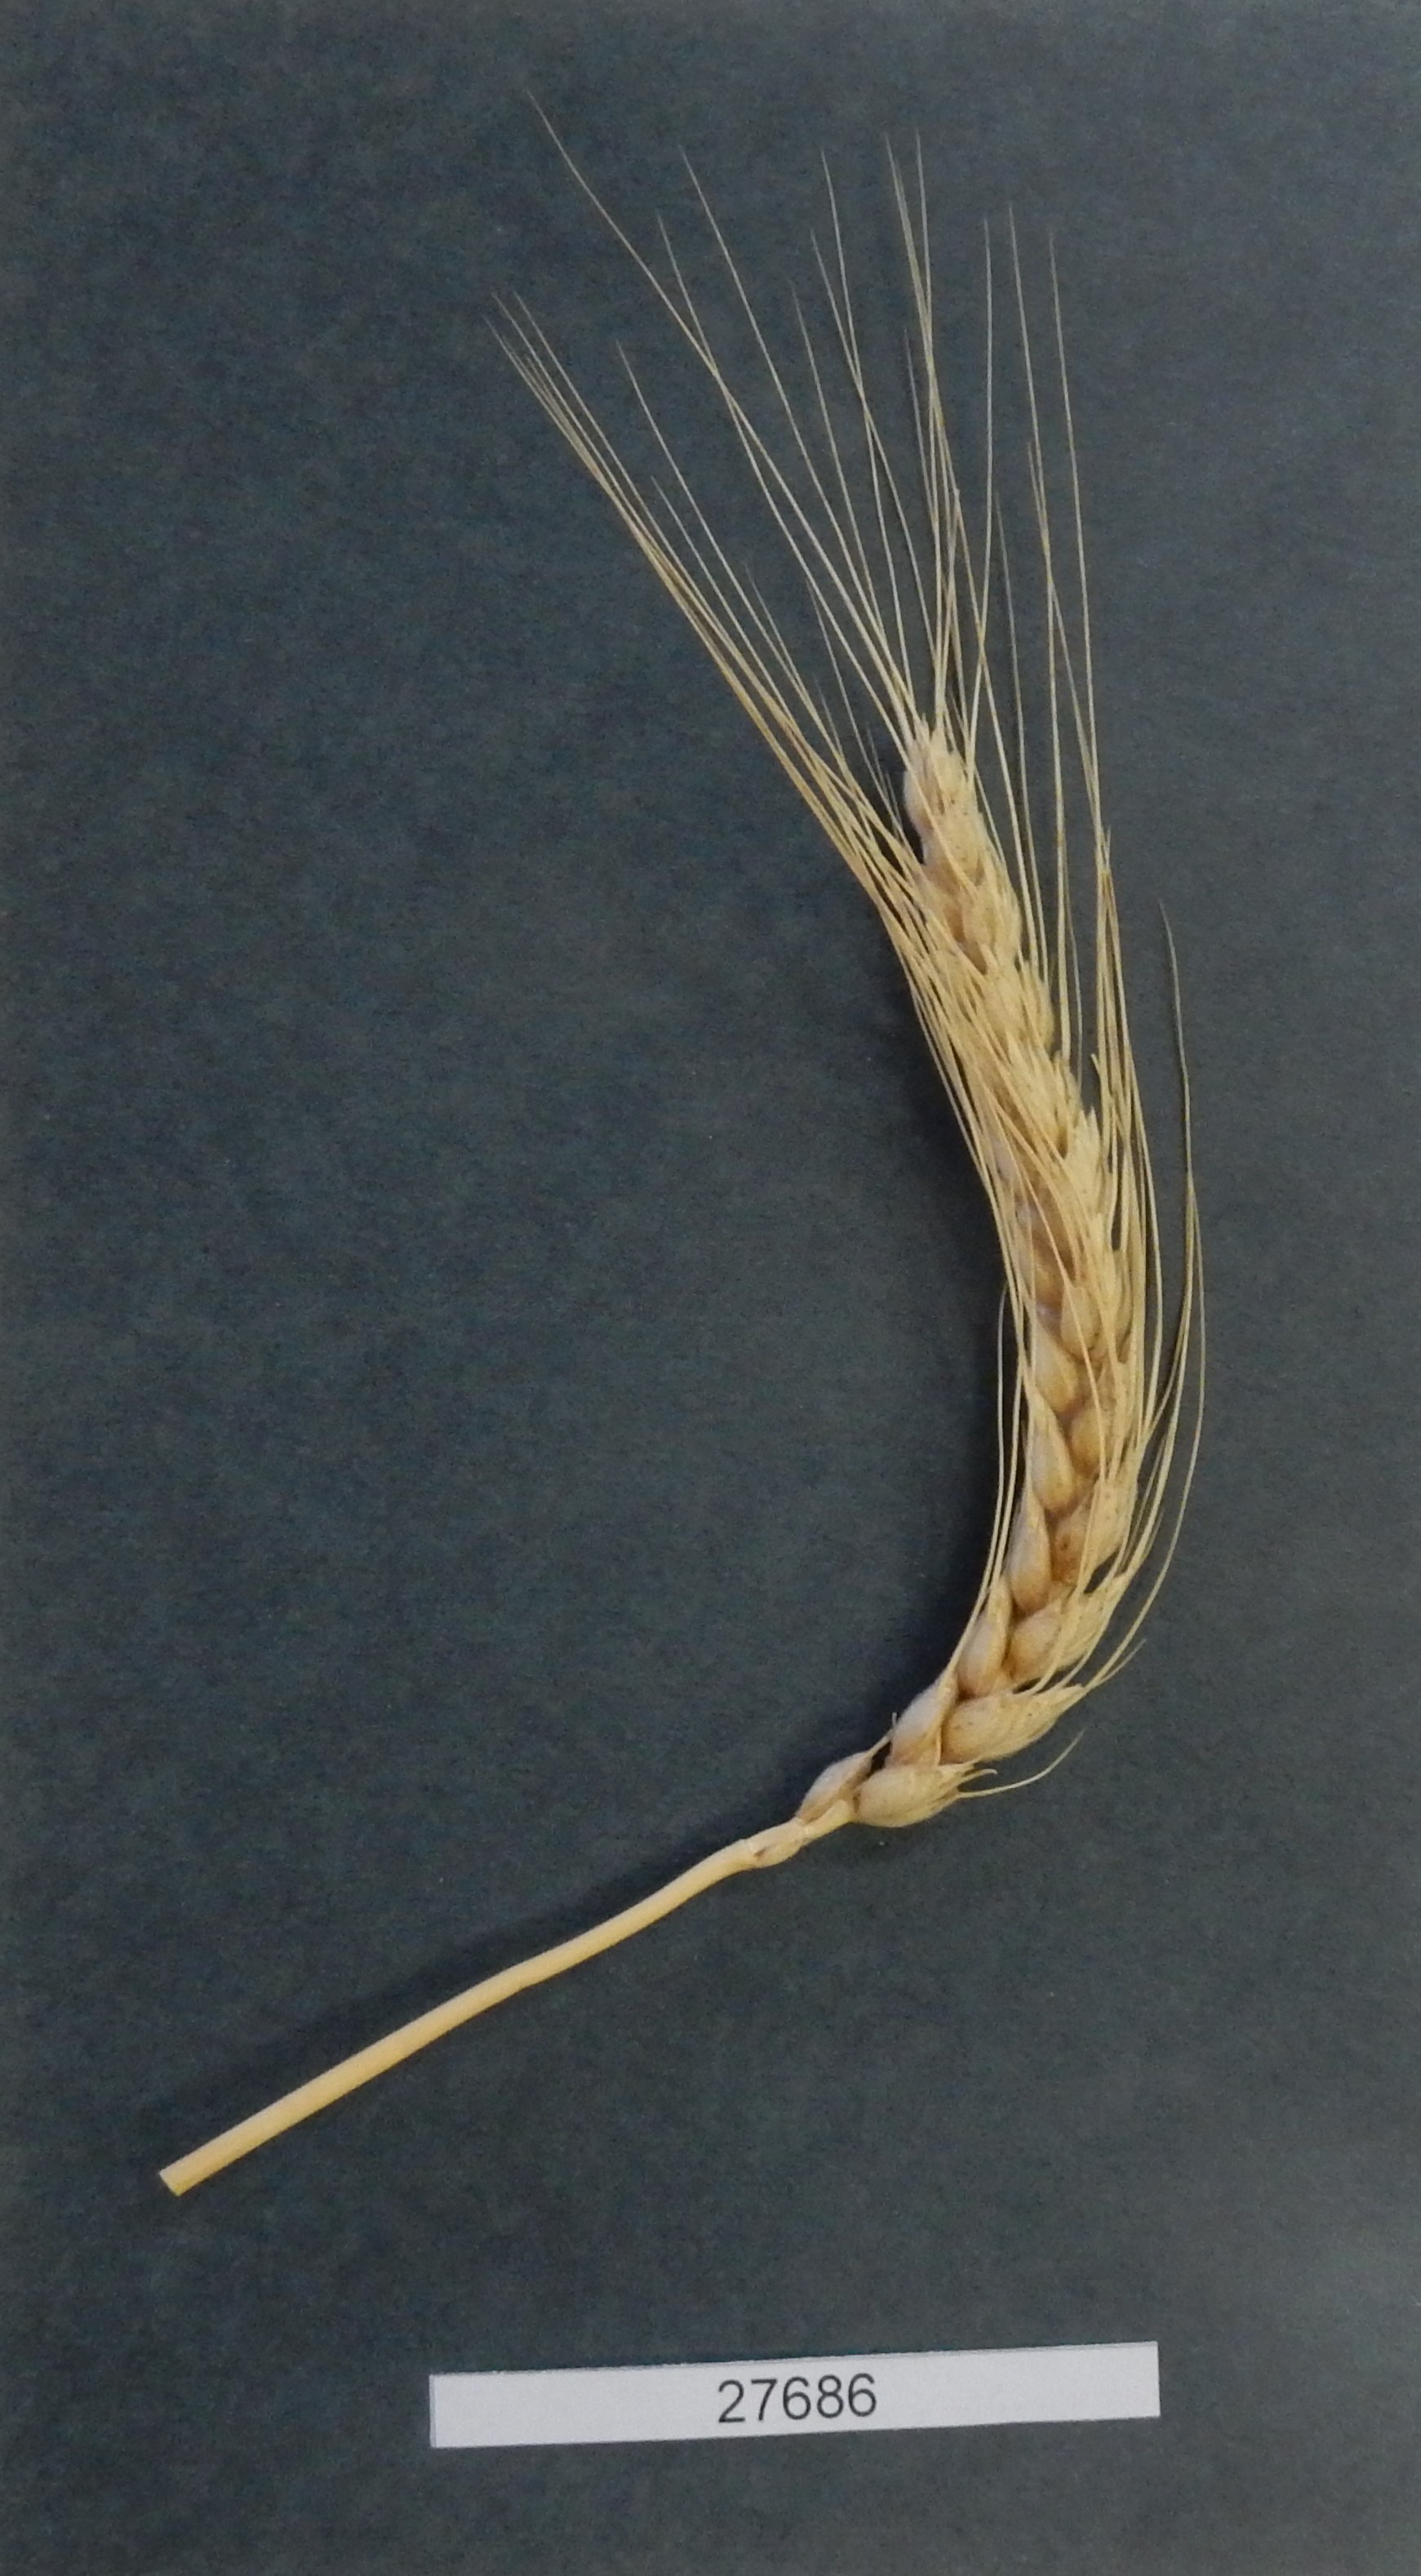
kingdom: Plantae
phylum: Tracheophyta
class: Liliopsida
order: Poales
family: Poaceae
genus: Triticum
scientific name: Triticum aestivum
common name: Common wheat
